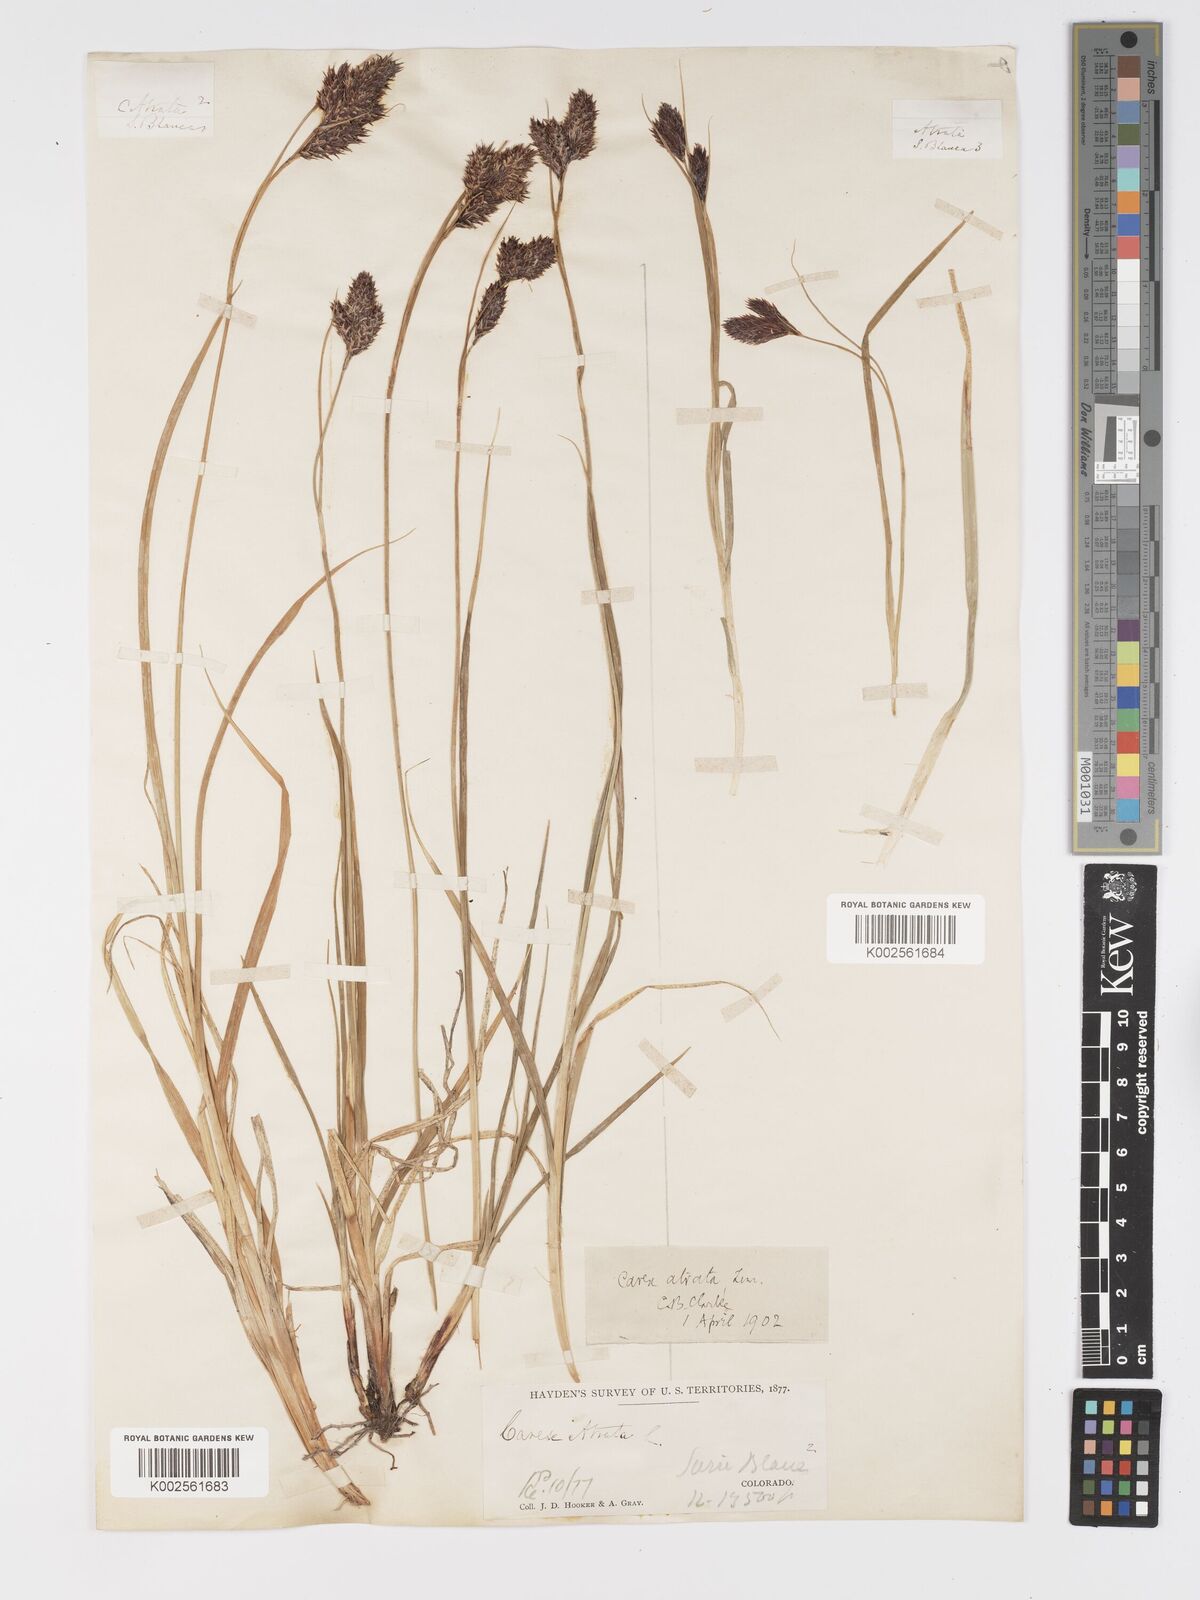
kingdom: Plantae
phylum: Tracheophyta
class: Liliopsida
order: Poales
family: Cyperaceae
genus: Carex
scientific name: Carex chalciolepis
